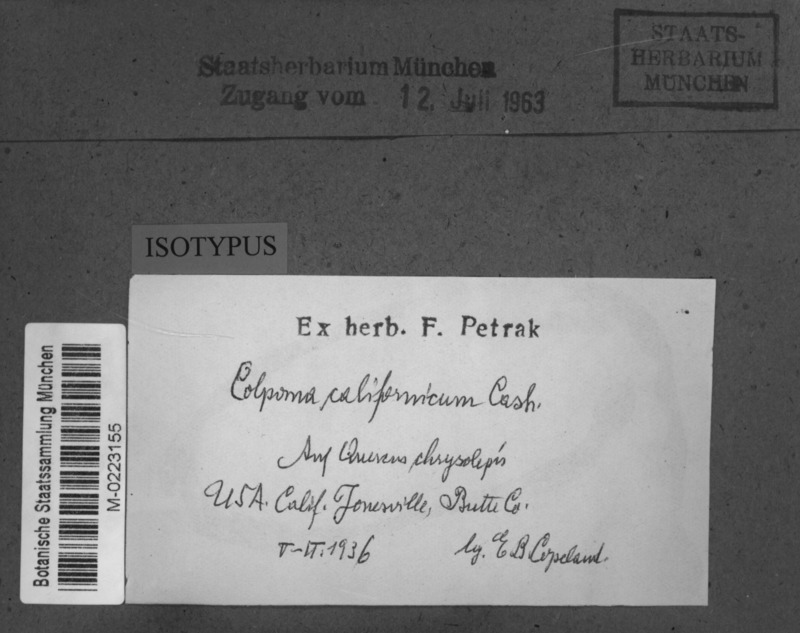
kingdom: Fungi
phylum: Ascomycota
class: Leotiomycetes
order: Rhytismatales
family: Rhytismataceae
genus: Coccomyces
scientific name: Coccomyces castanopsidis
